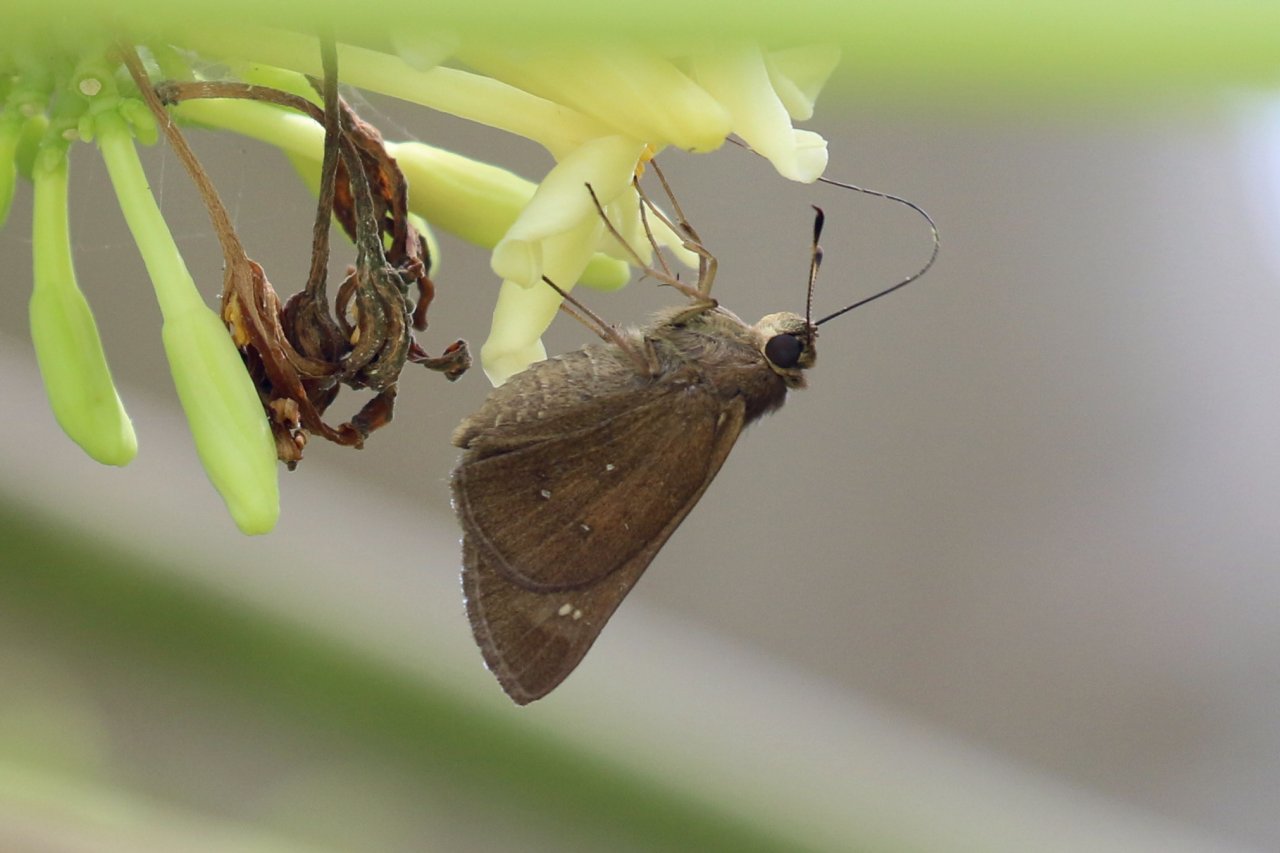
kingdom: Animalia
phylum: Arthropoda
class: Insecta
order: Lepidoptera
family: Hesperiidae
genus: Decinea
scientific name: Decinea percosius
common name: Double-dotted Skipper
